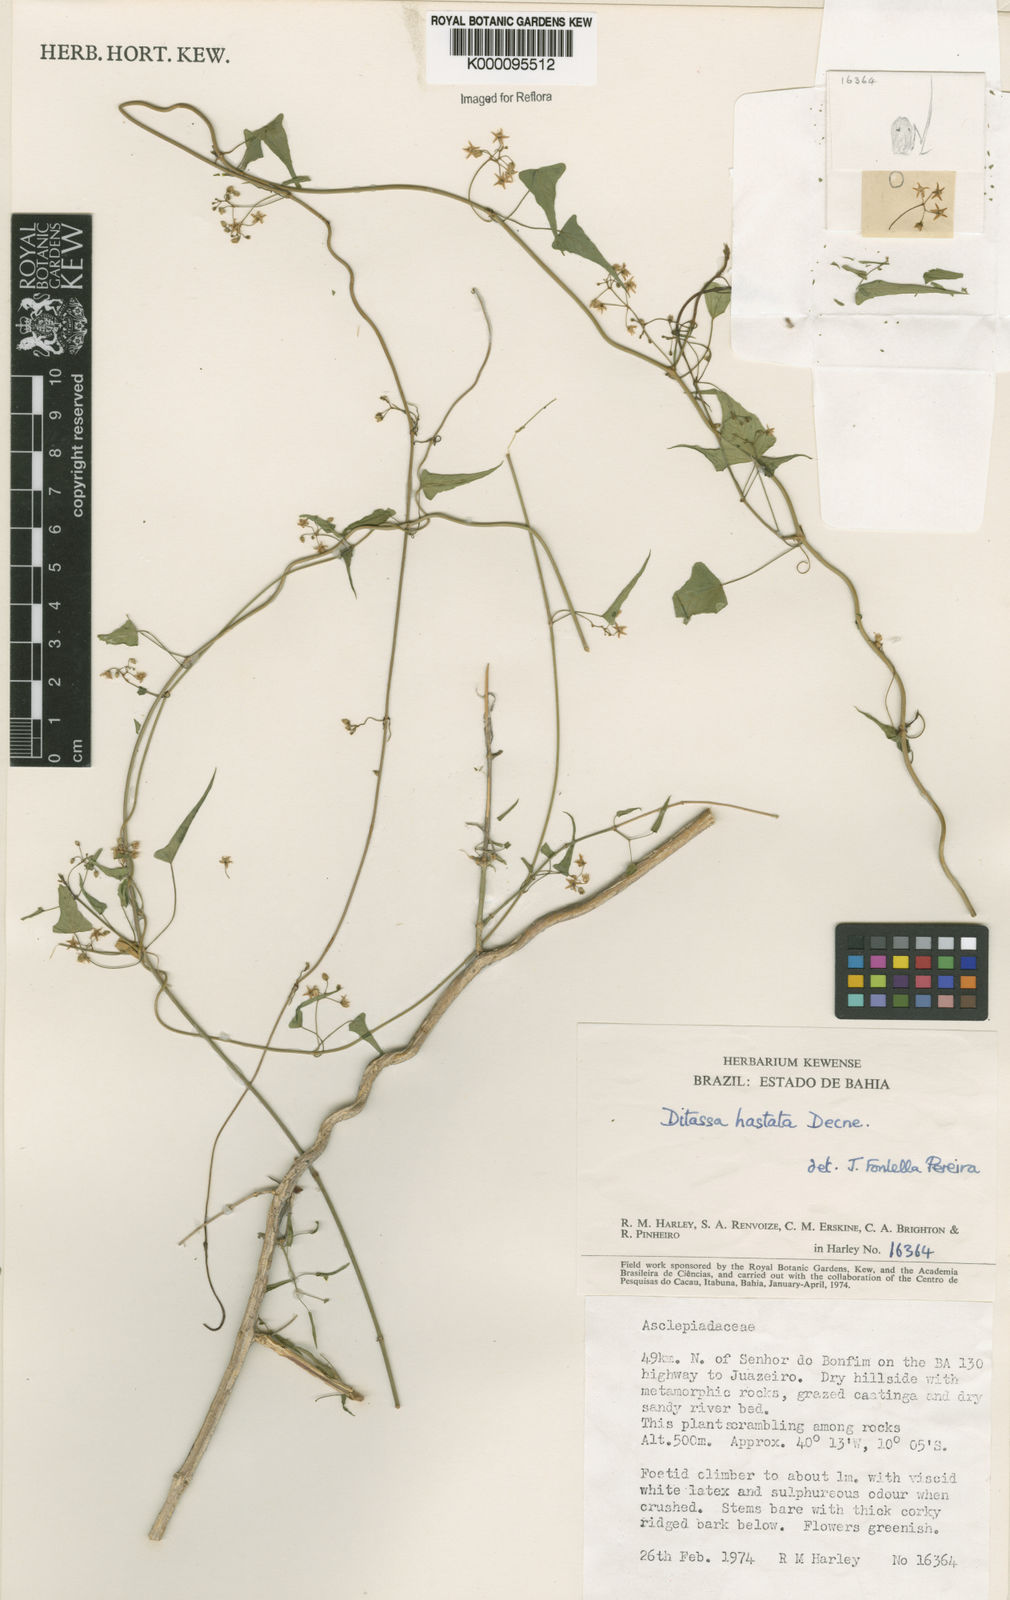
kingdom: Plantae
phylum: Tracheophyta
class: Magnoliopsida
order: Gentianales
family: Apocynaceae
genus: Ditassa
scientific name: Ditassa hastata
